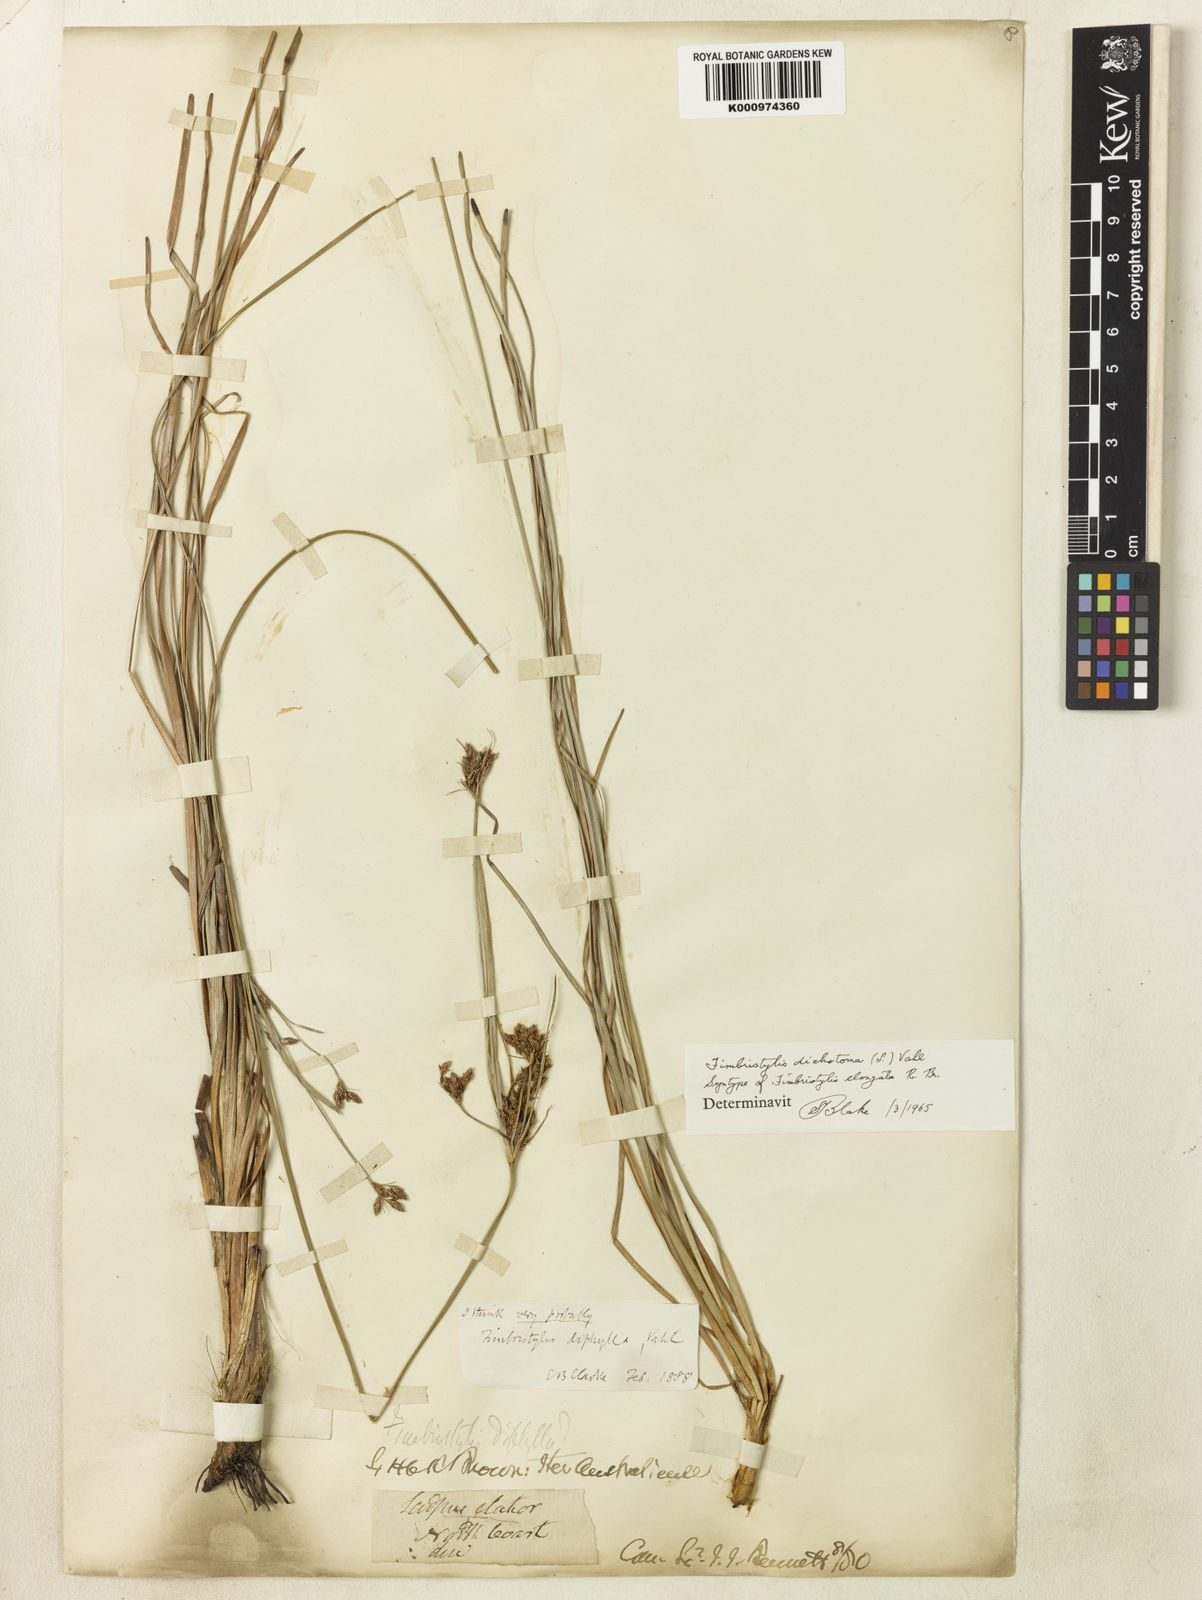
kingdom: Plantae
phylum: Tracheophyta
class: Liliopsida
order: Poales
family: Cyperaceae
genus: Fimbristylis
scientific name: Fimbristylis dichotoma
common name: Forked fimbry
